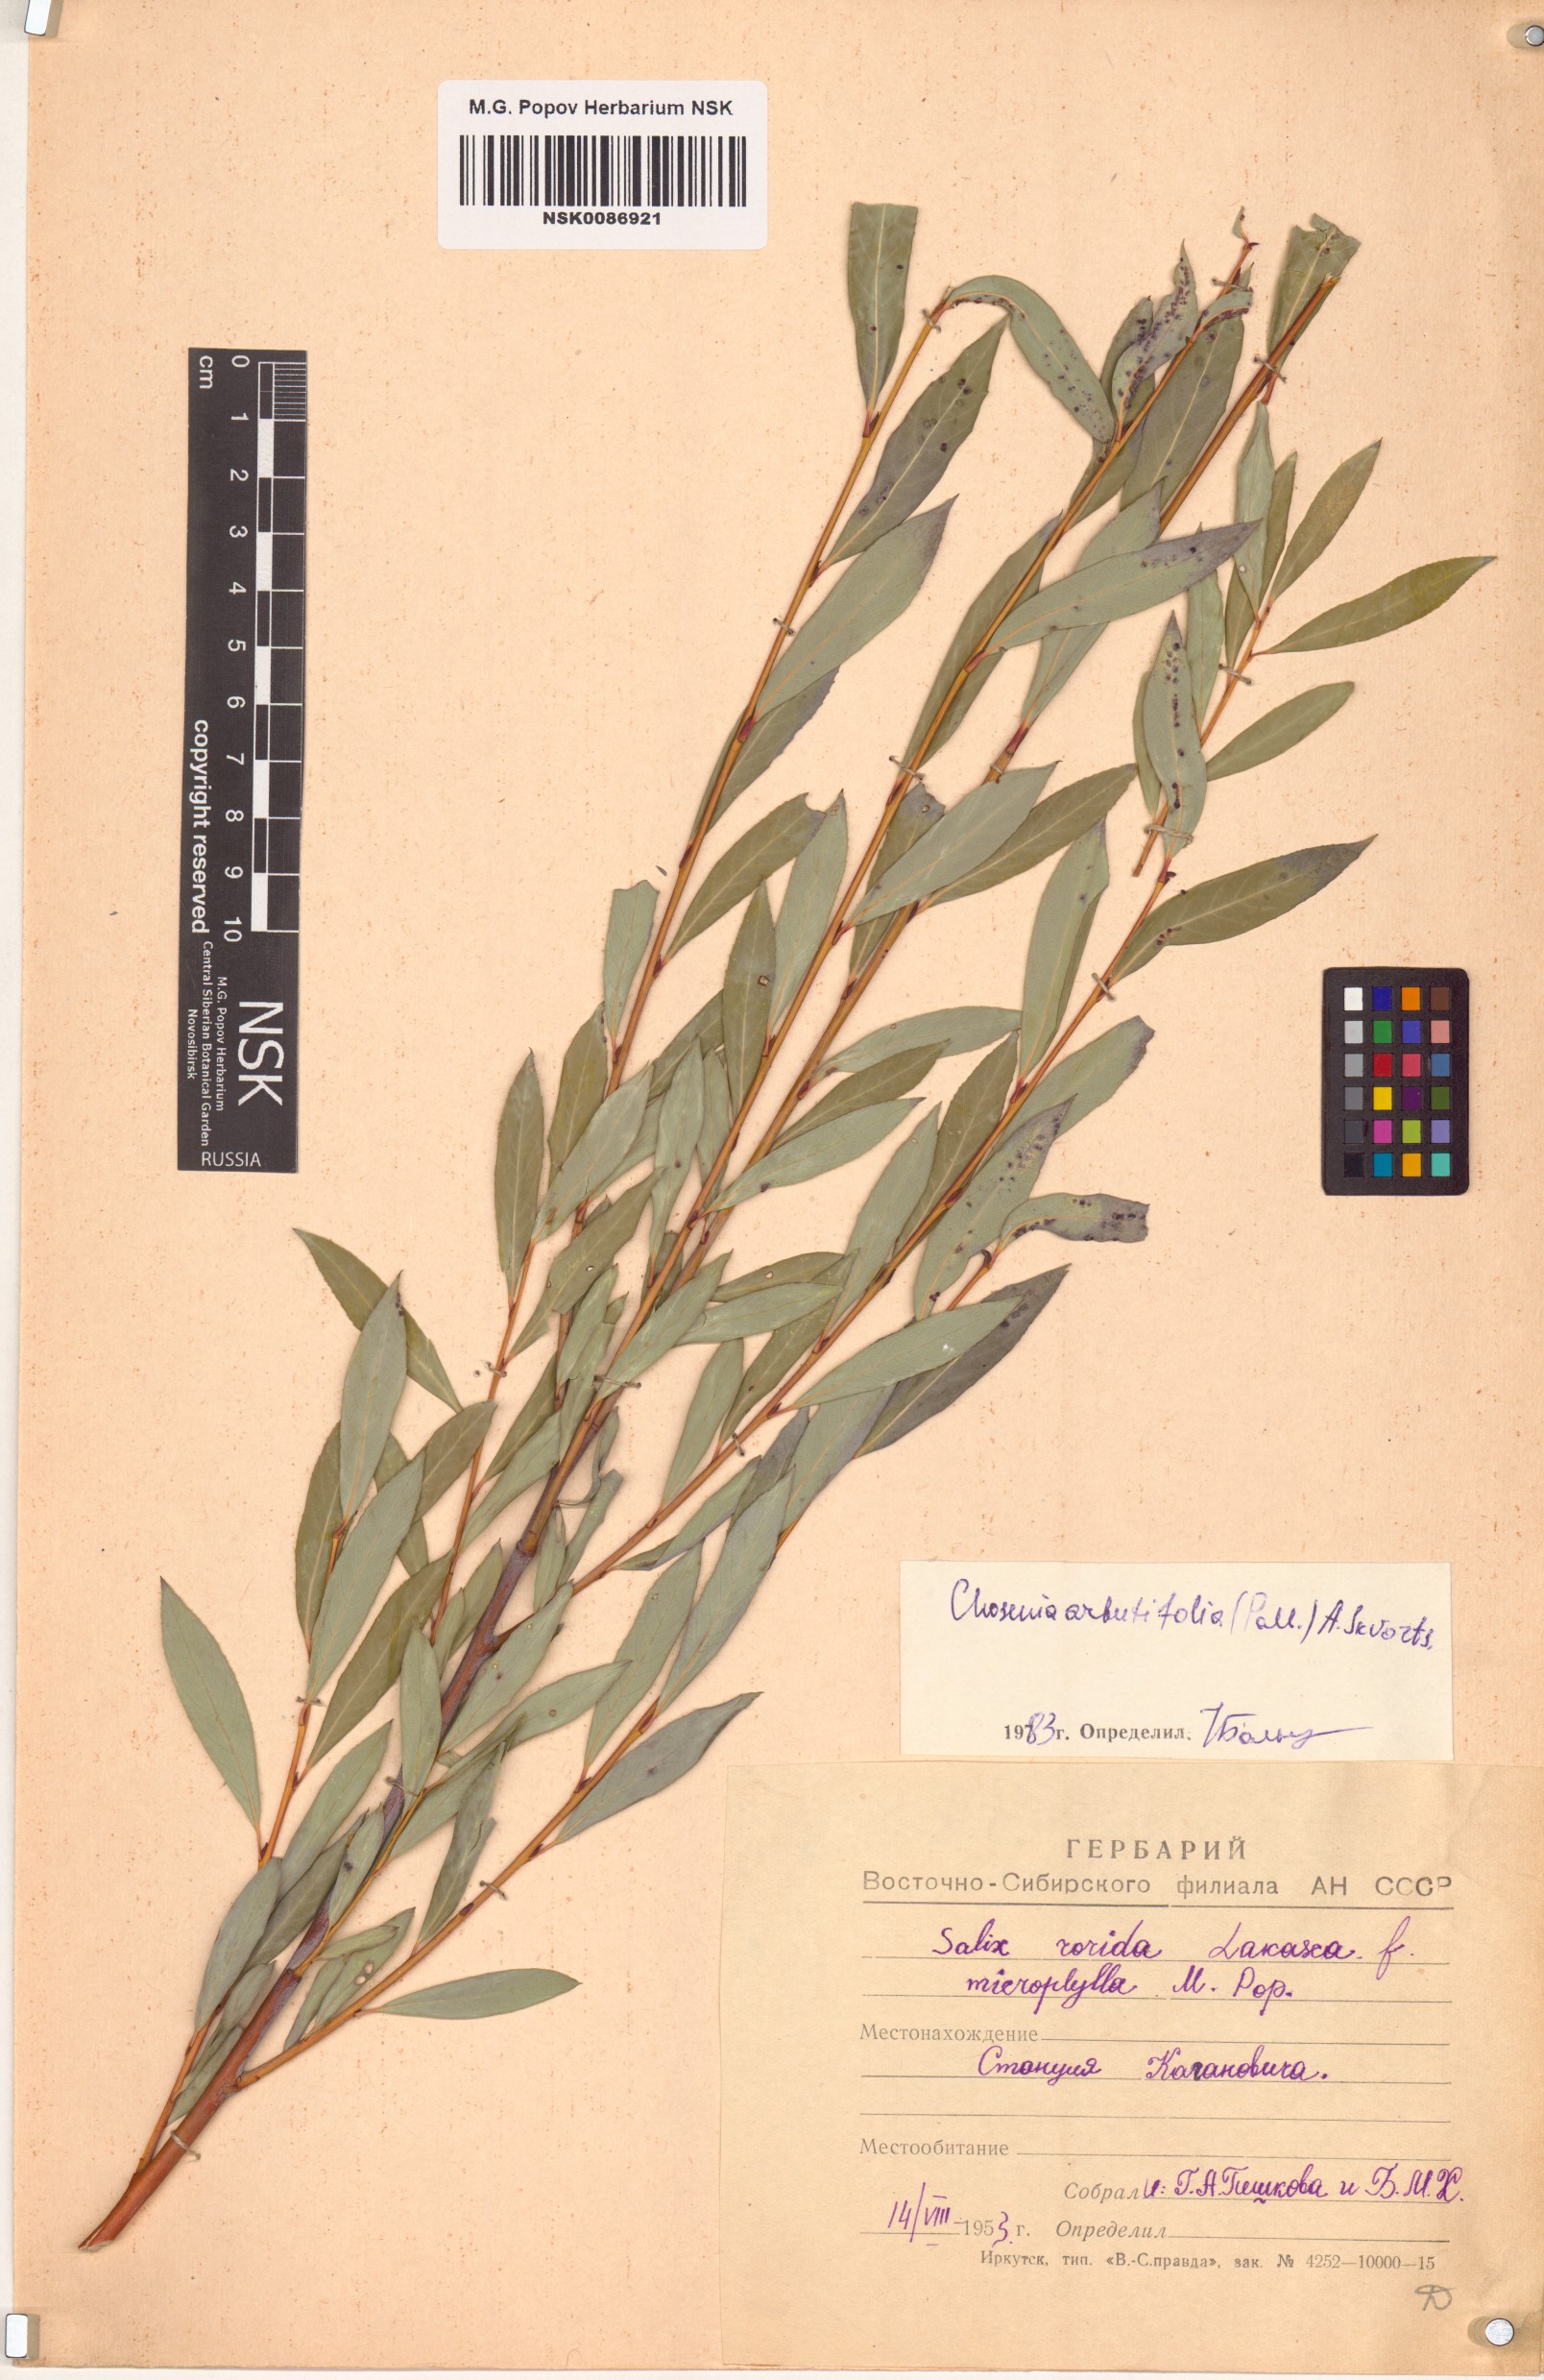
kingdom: Plantae
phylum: Tracheophyta
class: Magnoliopsida
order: Malpighiales
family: Salicaceae
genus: Chosenia
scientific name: Chosenia arbutifolia
